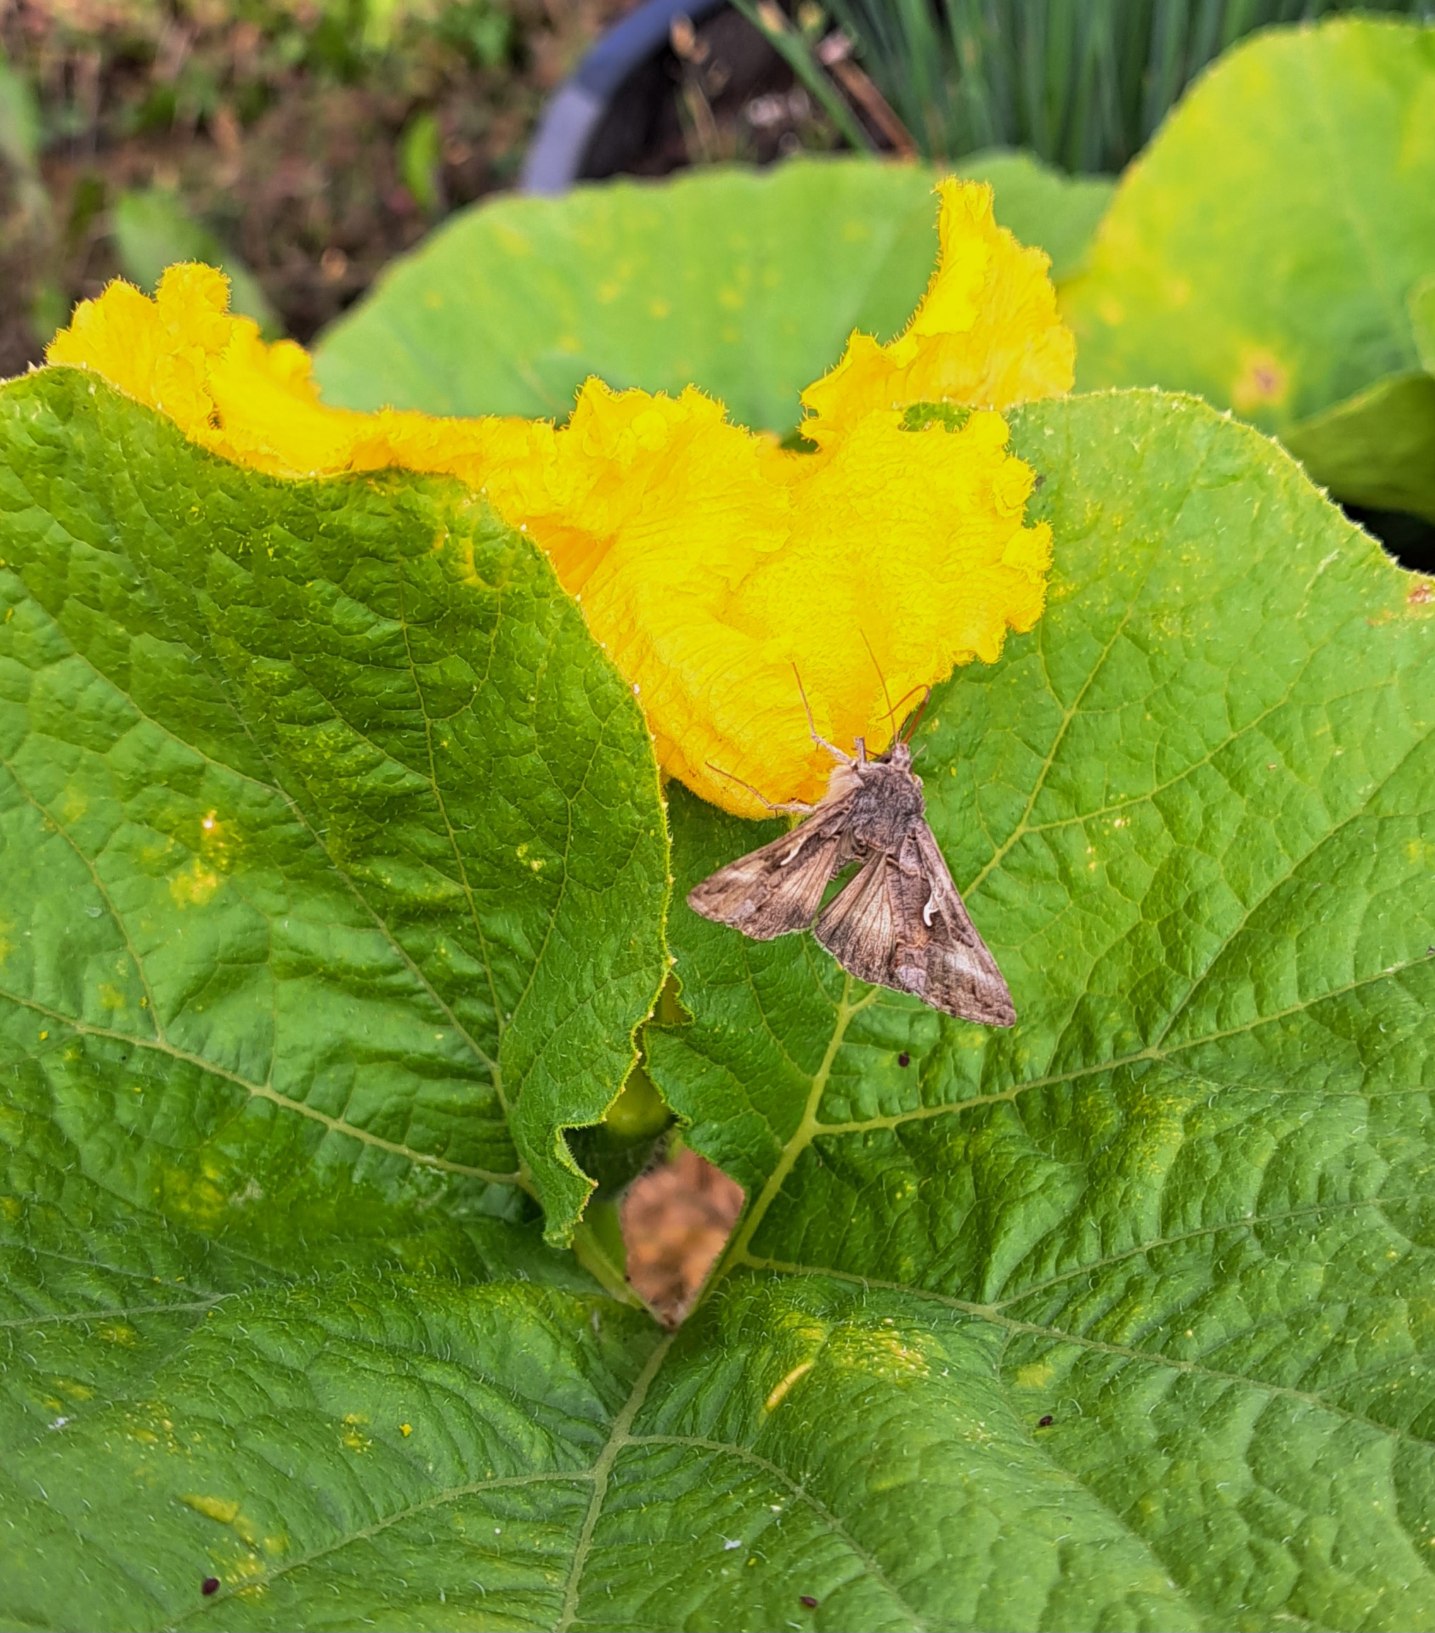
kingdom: Animalia
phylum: Arthropoda
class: Insecta
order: Lepidoptera
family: Noctuidae
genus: Autographa
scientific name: Autographa gamma
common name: Gammaugle
